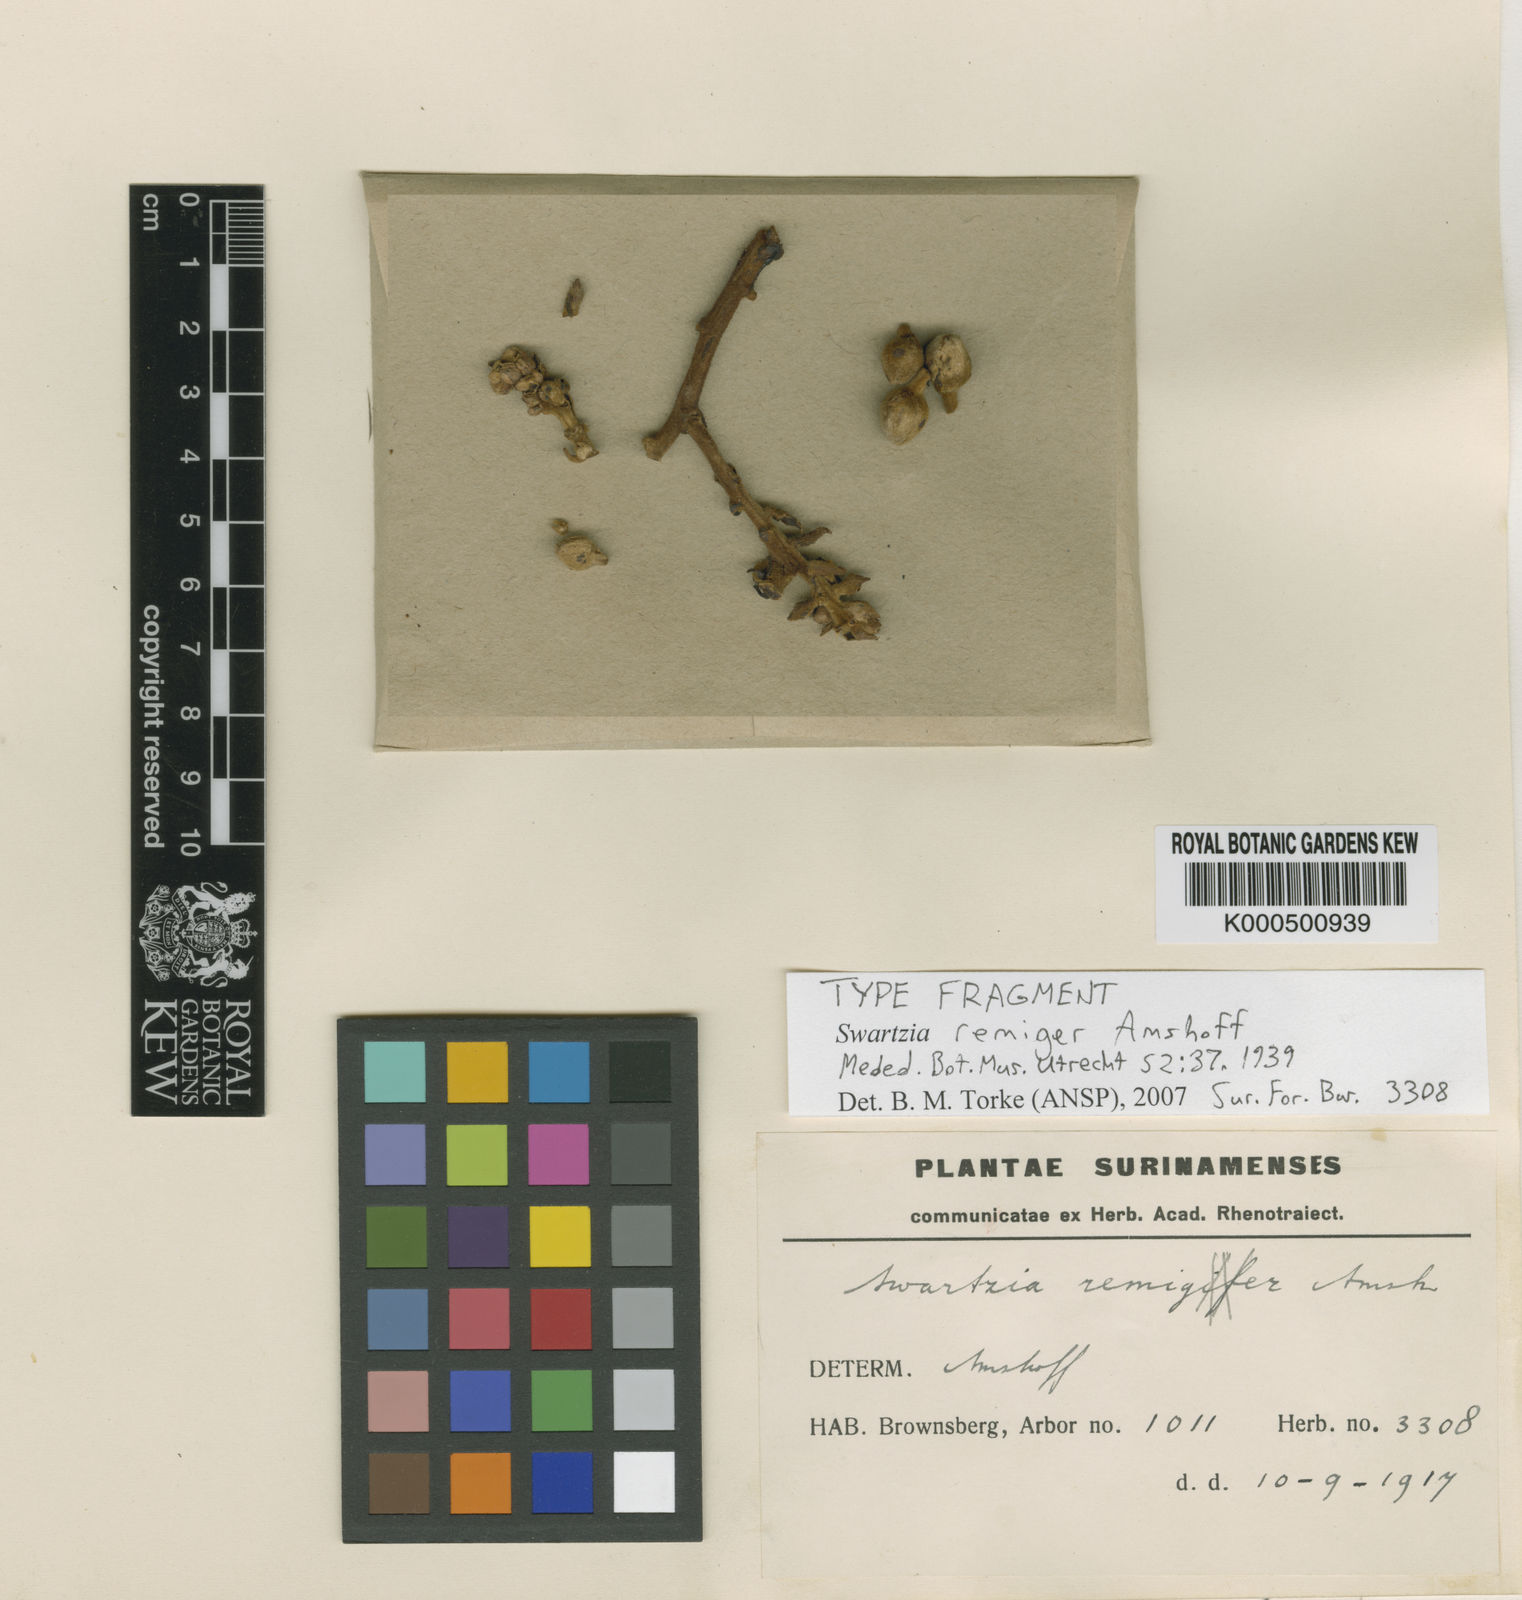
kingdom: Plantae
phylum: Tracheophyta
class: Magnoliopsida
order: Fabales
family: Fabaceae
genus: Swartzia
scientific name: Swartzia
